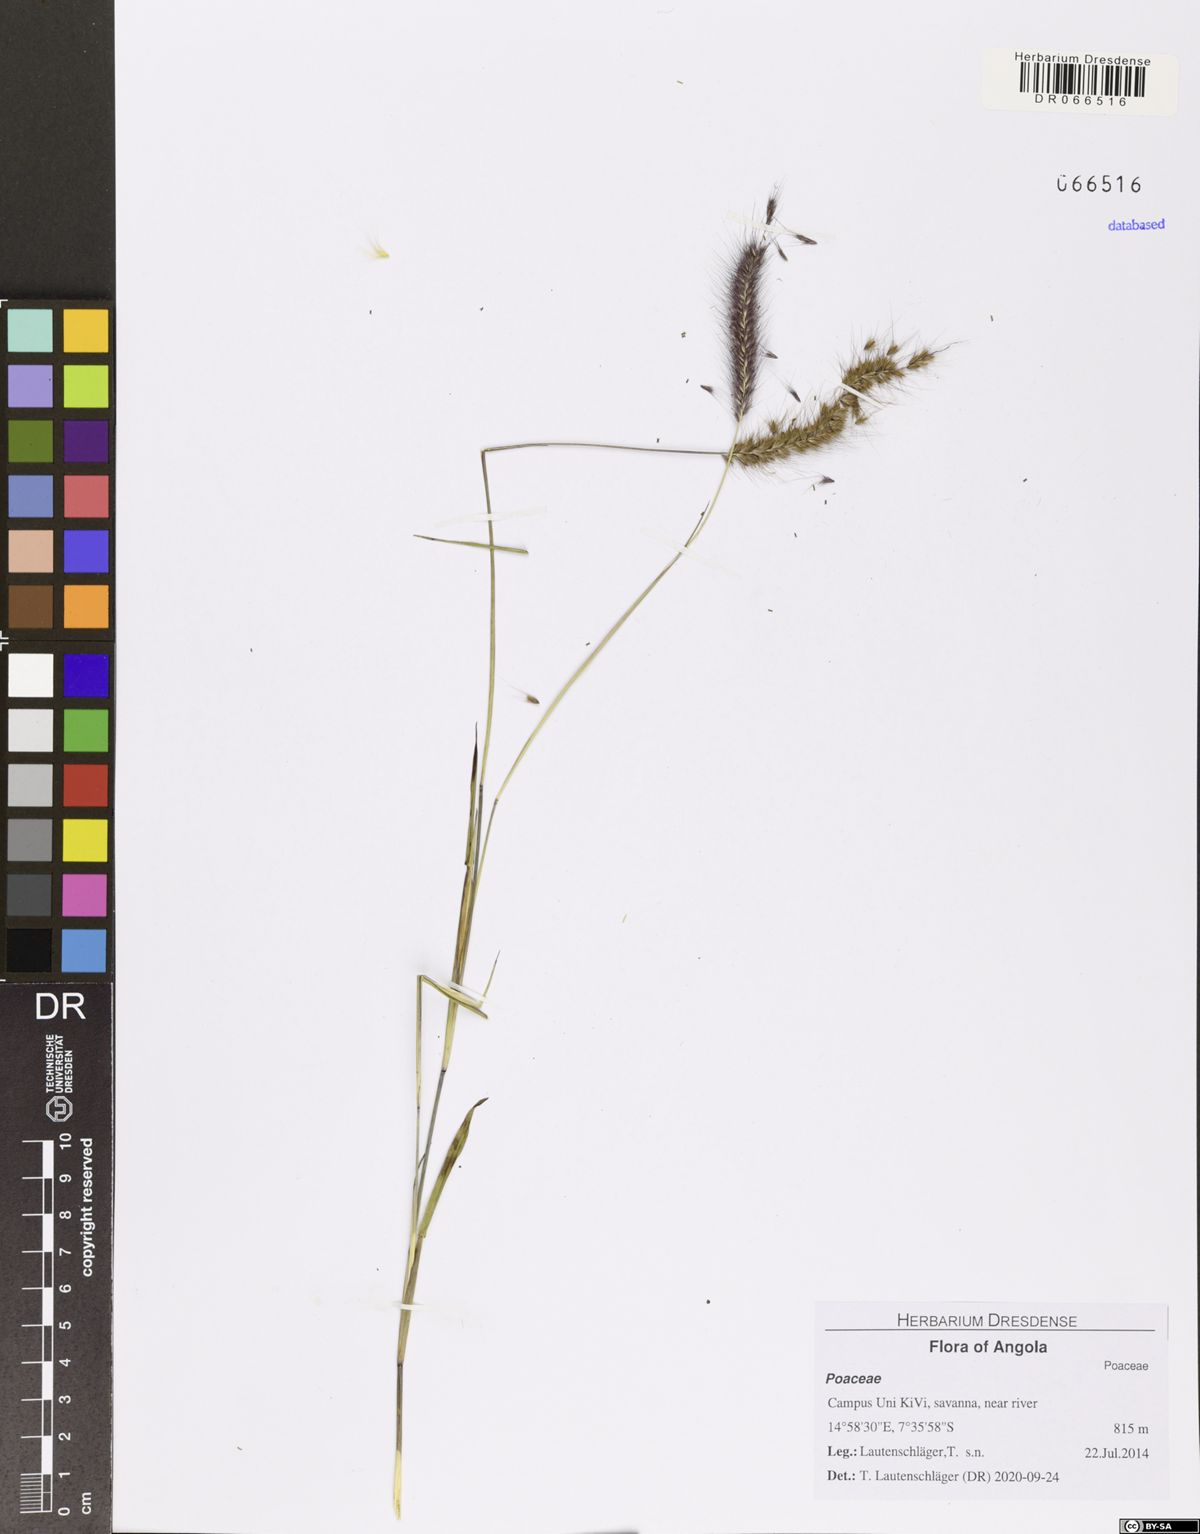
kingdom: Plantae
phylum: Tracheophyta
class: Liliopsida
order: Poales
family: Poaceae
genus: Setaria
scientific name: Setaria parviflora
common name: Knotroot bristle-grass
